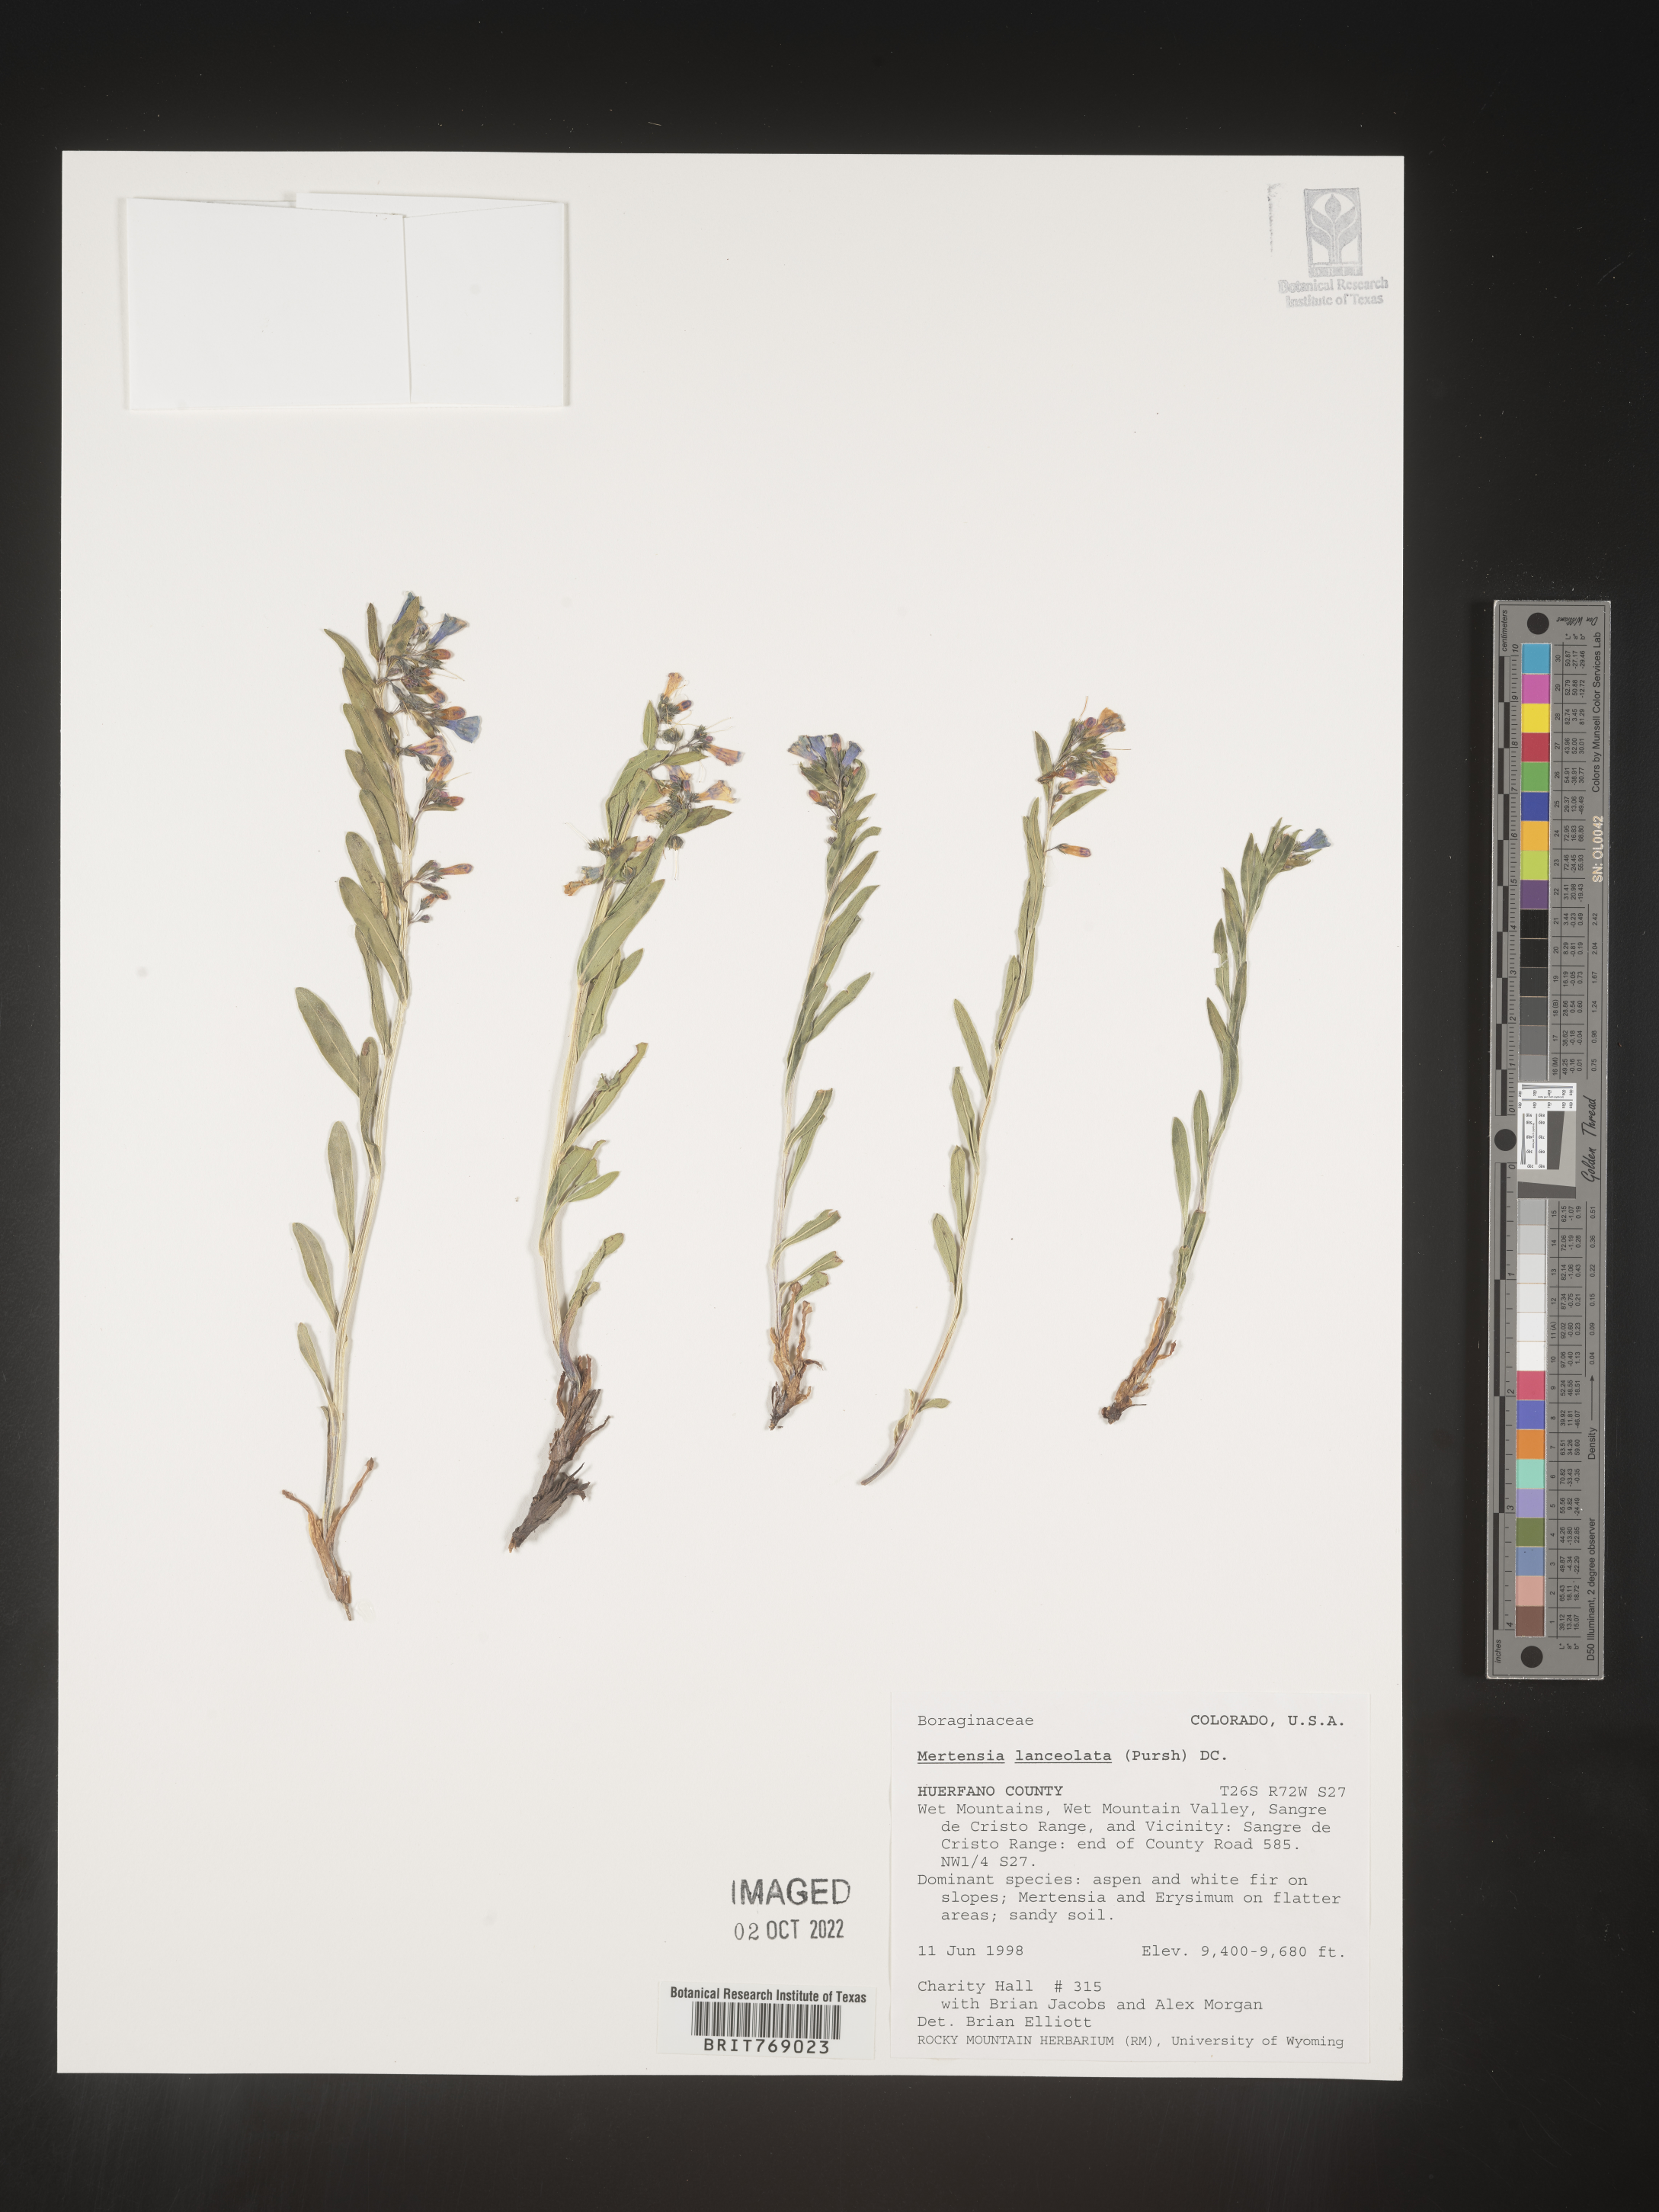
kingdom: Plantae
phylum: Tracheophyta
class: Magnoliopsida
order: Boraginales
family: Boraginaceae
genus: Mertensia
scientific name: Mertensia
